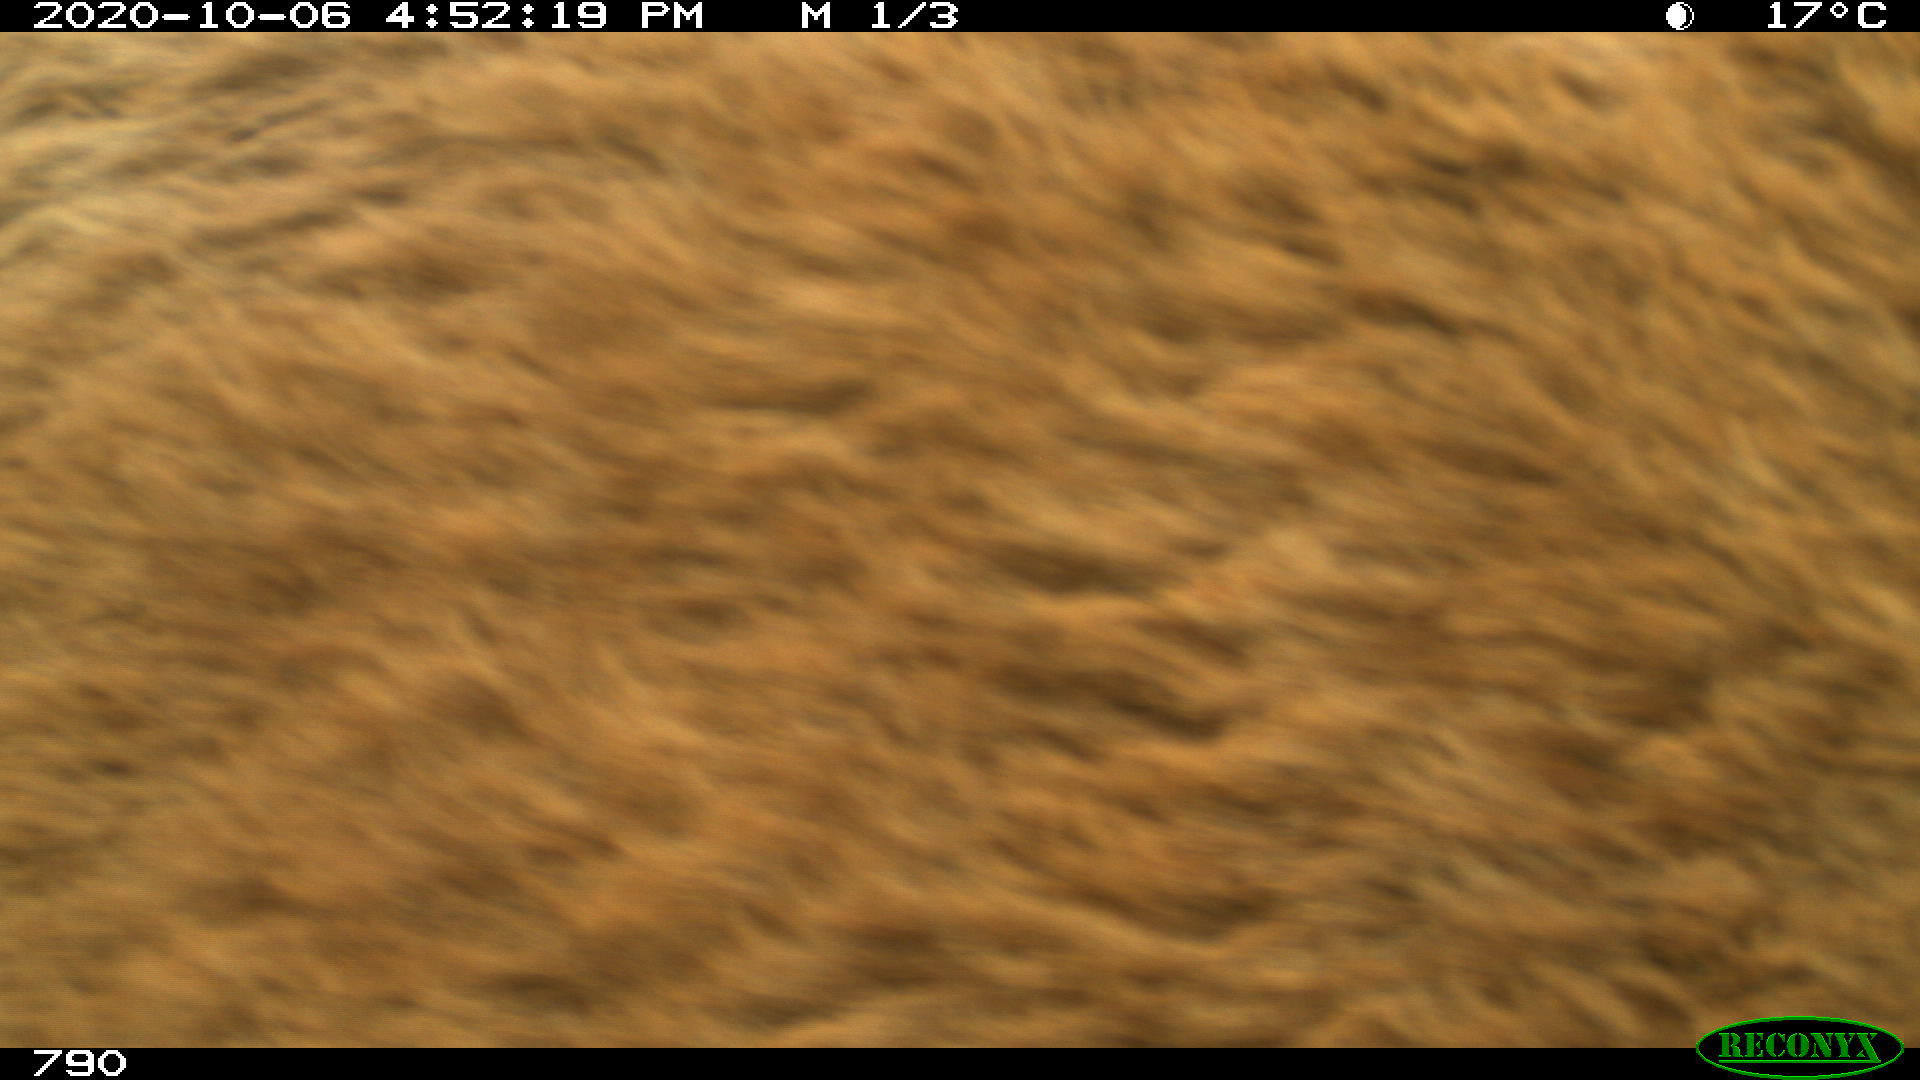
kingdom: Animalia
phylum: Chordata
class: Mammalia
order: Perissodactyla
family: Equidae
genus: Equus
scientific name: Equus caballus
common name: Horse
